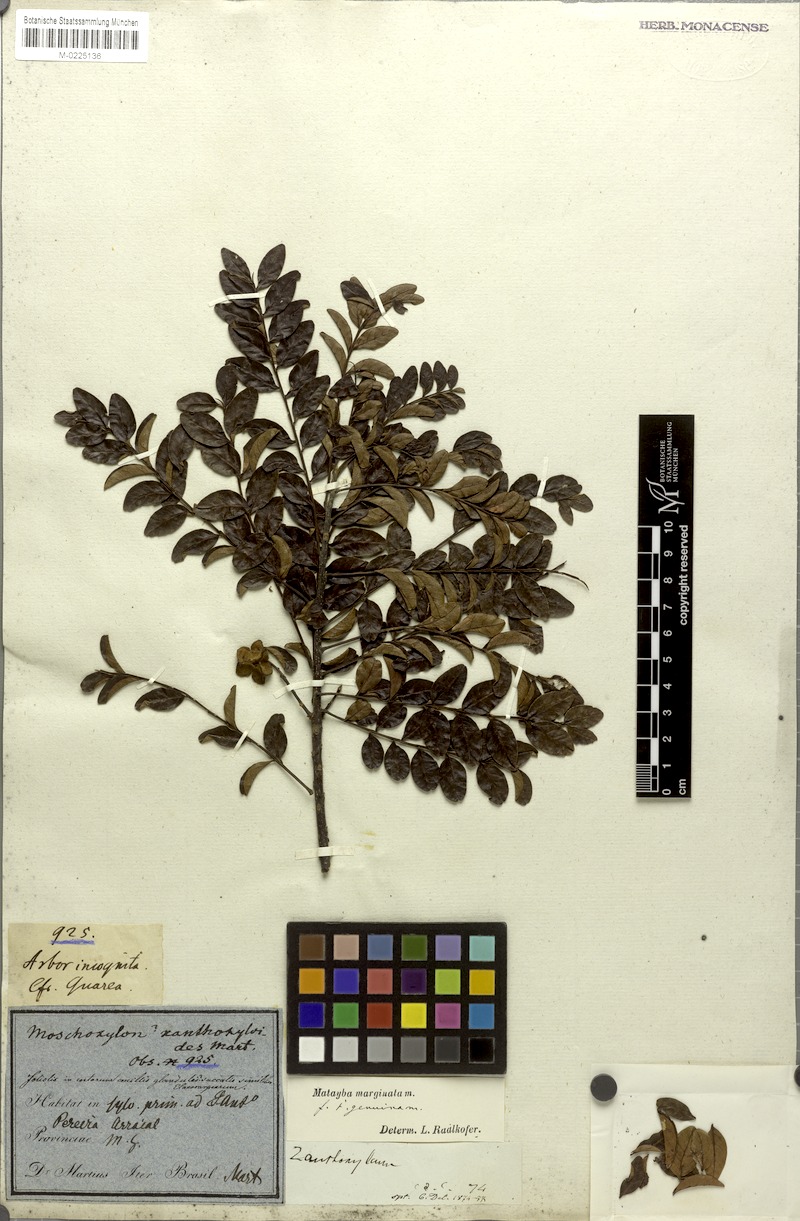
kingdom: Plantae
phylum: Tracheophyta
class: Magnoliopsida
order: Sapindales
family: Sapindaceae
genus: Matayba
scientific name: Matayba marginata
